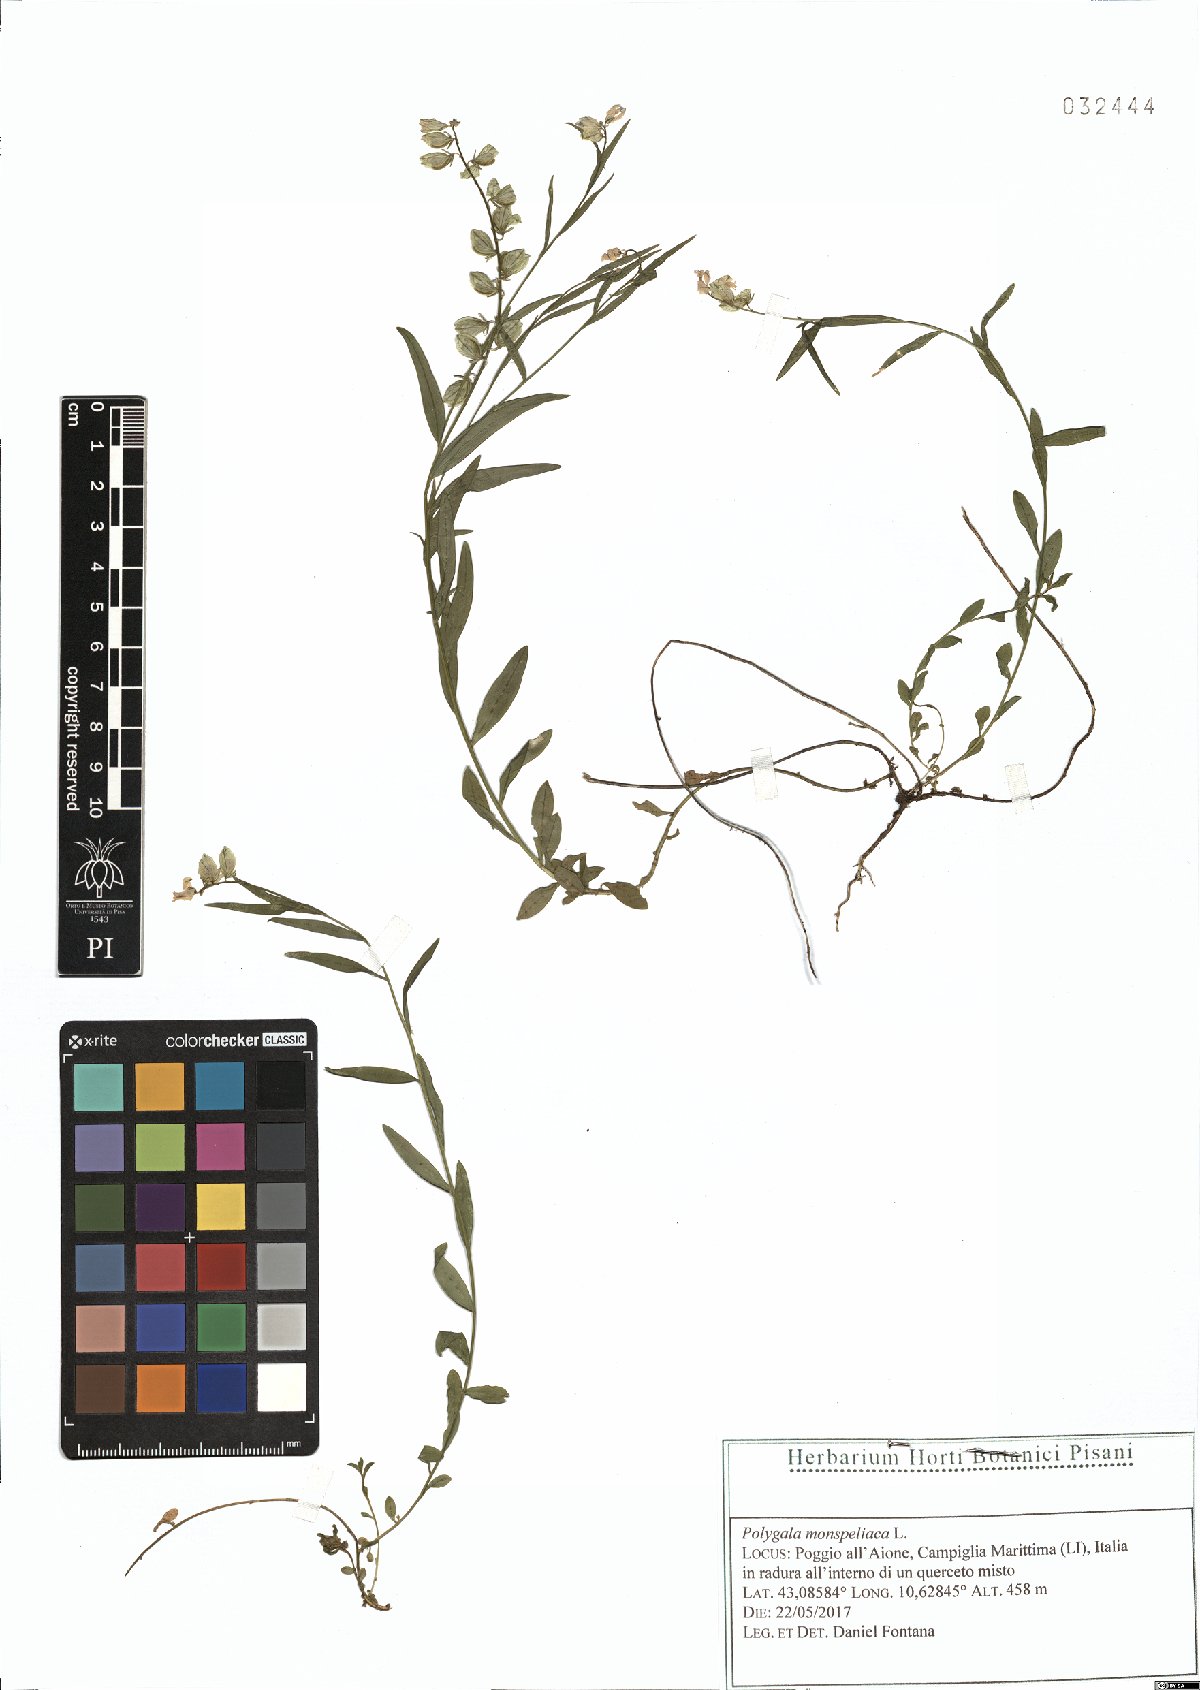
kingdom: Plantae
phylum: Tracheophyta
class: Magnoliopsida
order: Fabales
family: Polygalaceae
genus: Polygala
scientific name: Polygala monspeliaca
